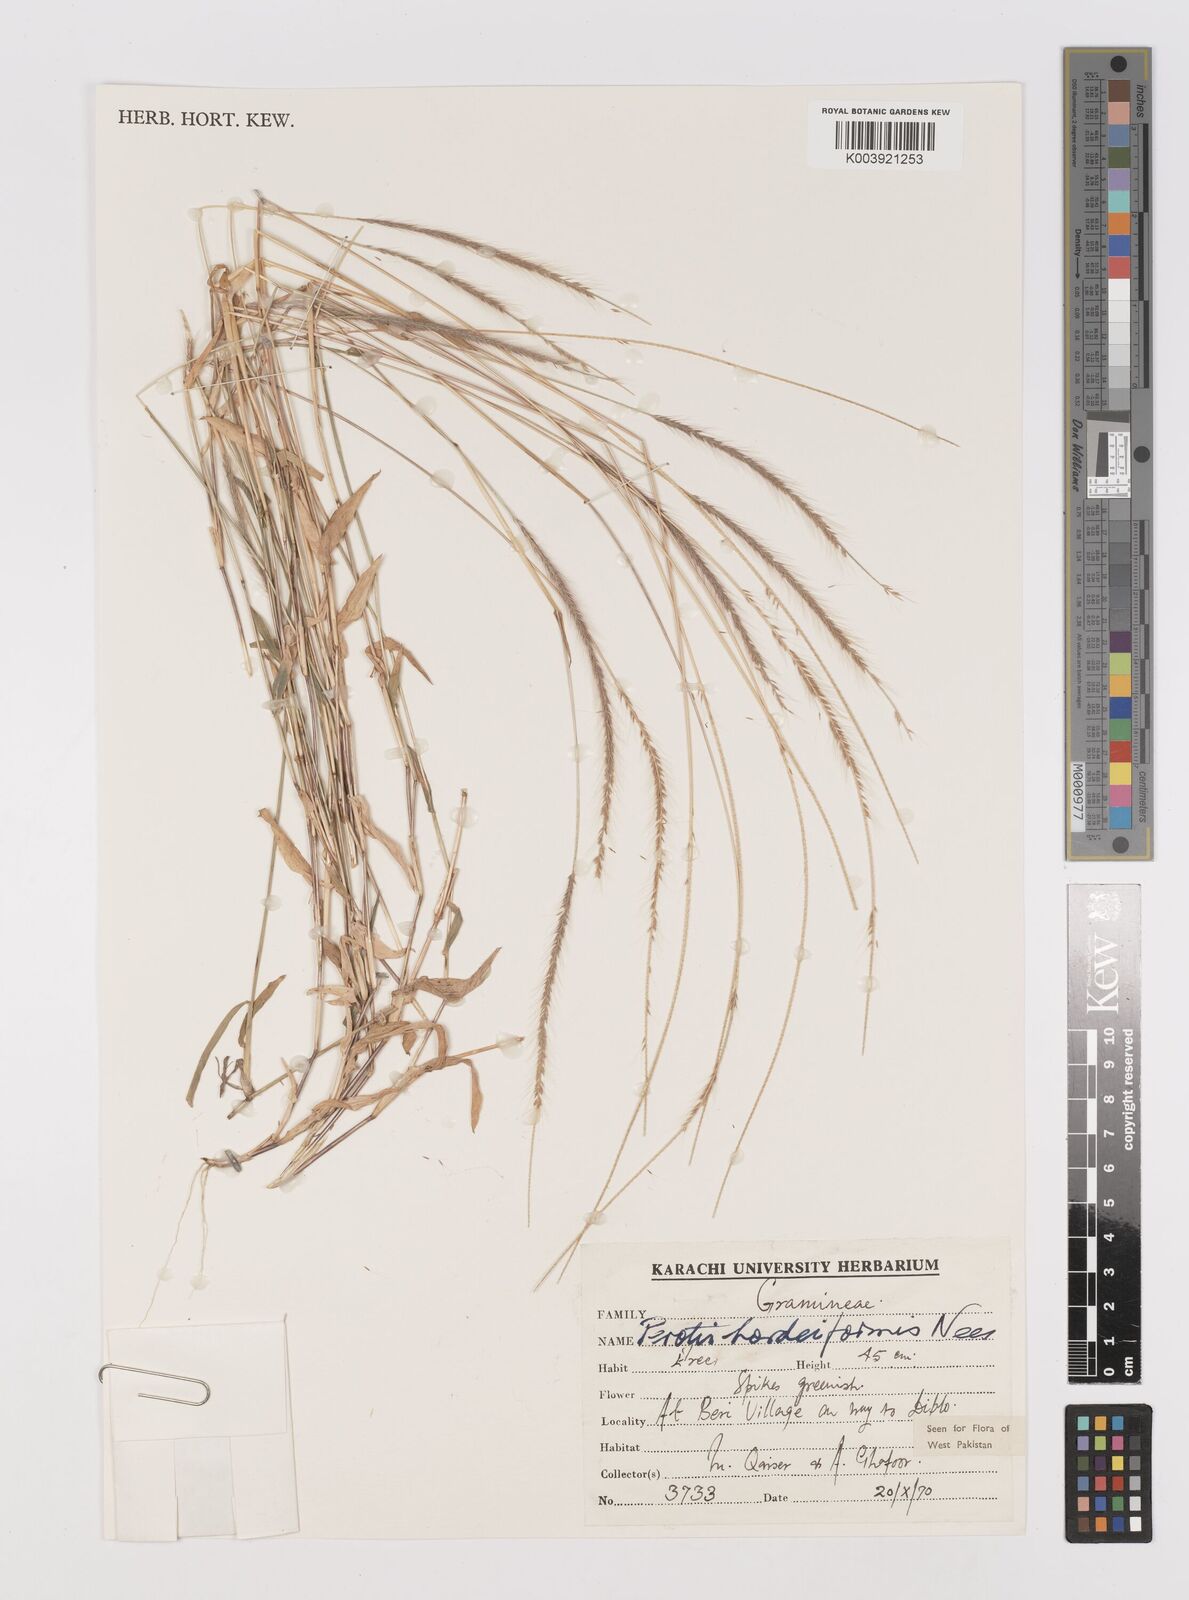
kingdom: Plantae
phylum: Tracheophyta
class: Liliopsida
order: Poales
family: Poaceae
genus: Perotis
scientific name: Perotis hordeiformis
